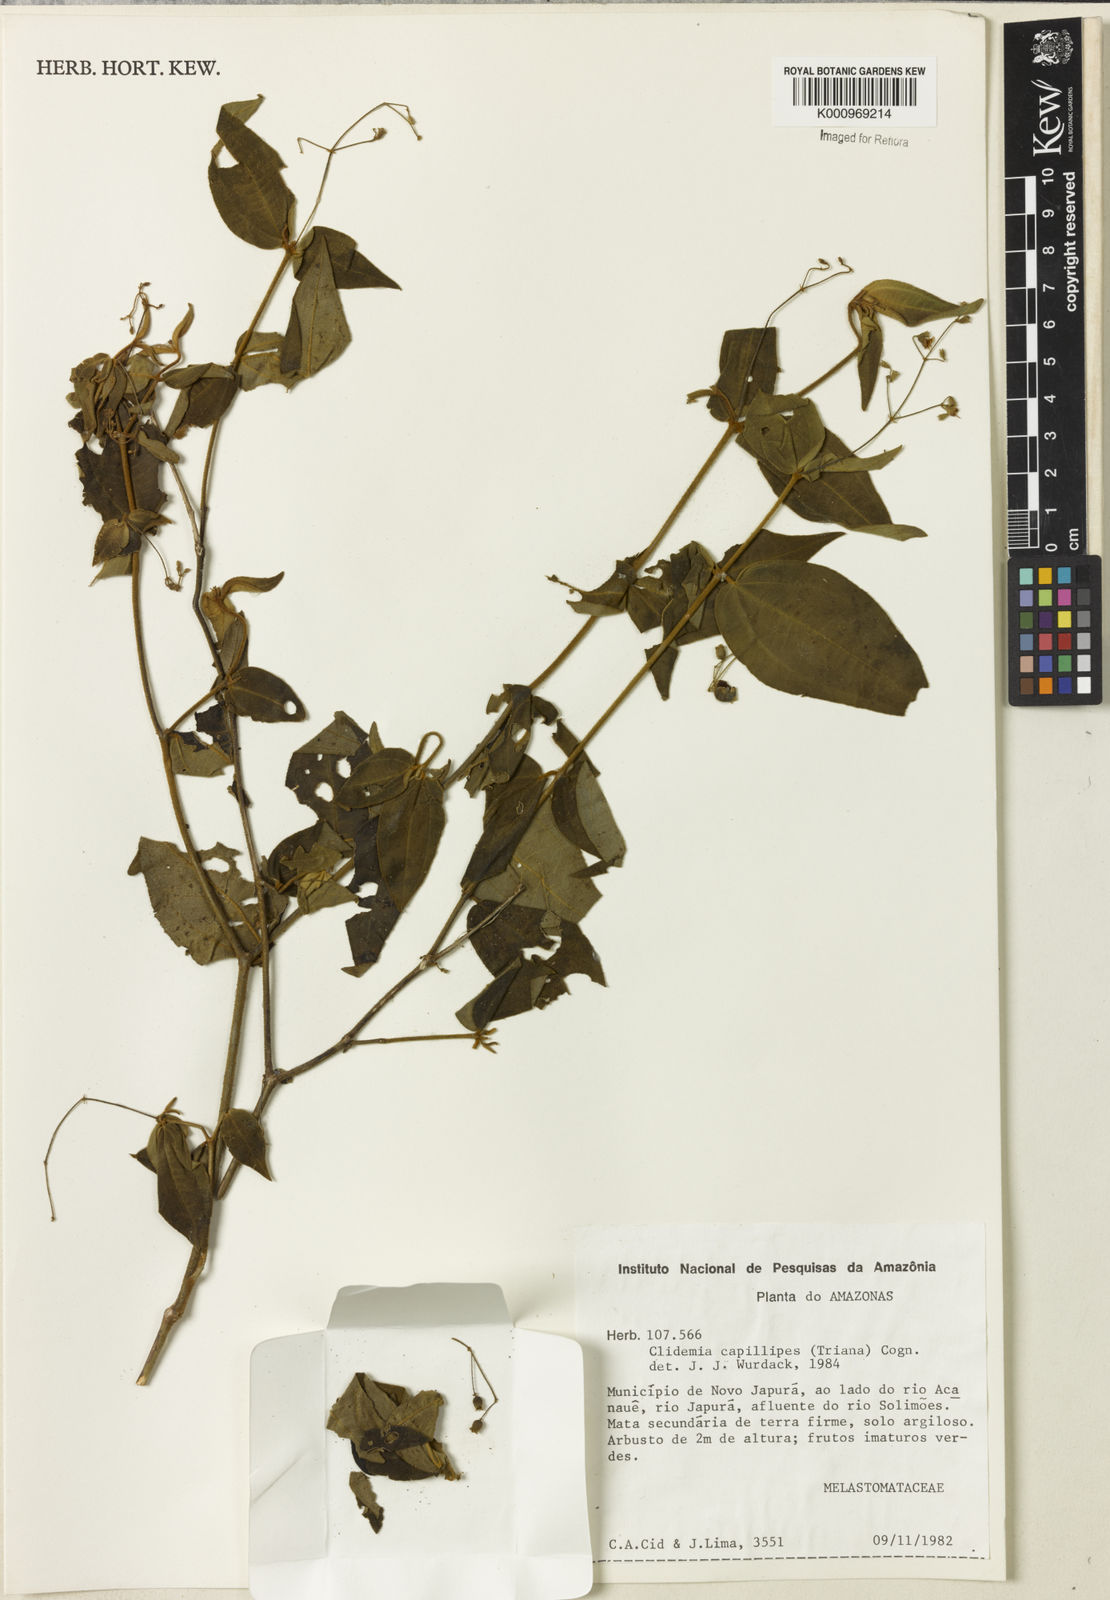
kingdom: Plantae
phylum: Tracheophyta
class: Magnoliopsida
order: Myrtales
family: Melastomataceae
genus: Miconia
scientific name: Miconia capillipes
